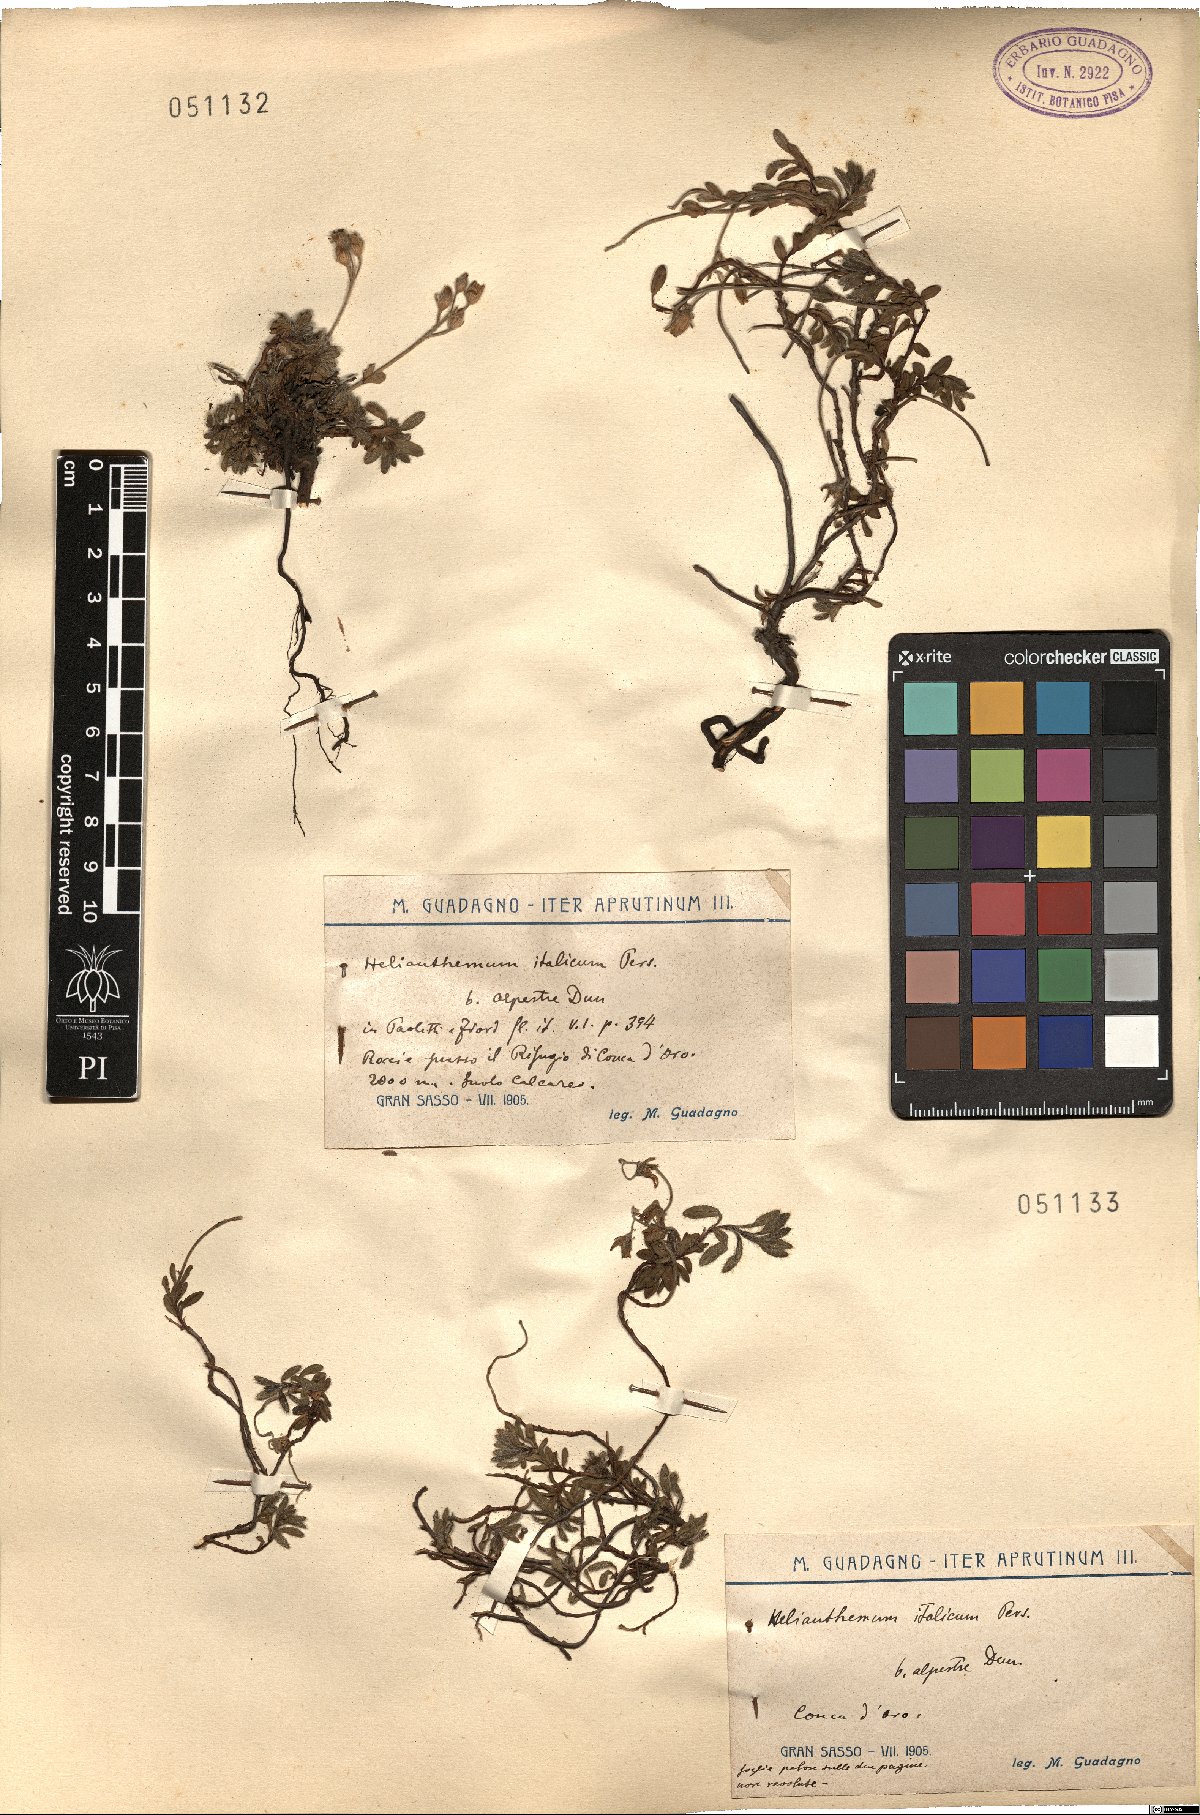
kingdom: Plantae
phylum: Tracheophyta
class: Magnoliopsida
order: Malvales
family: Cistaceae
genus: Helianthemum
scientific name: Helianthemum alpestre
